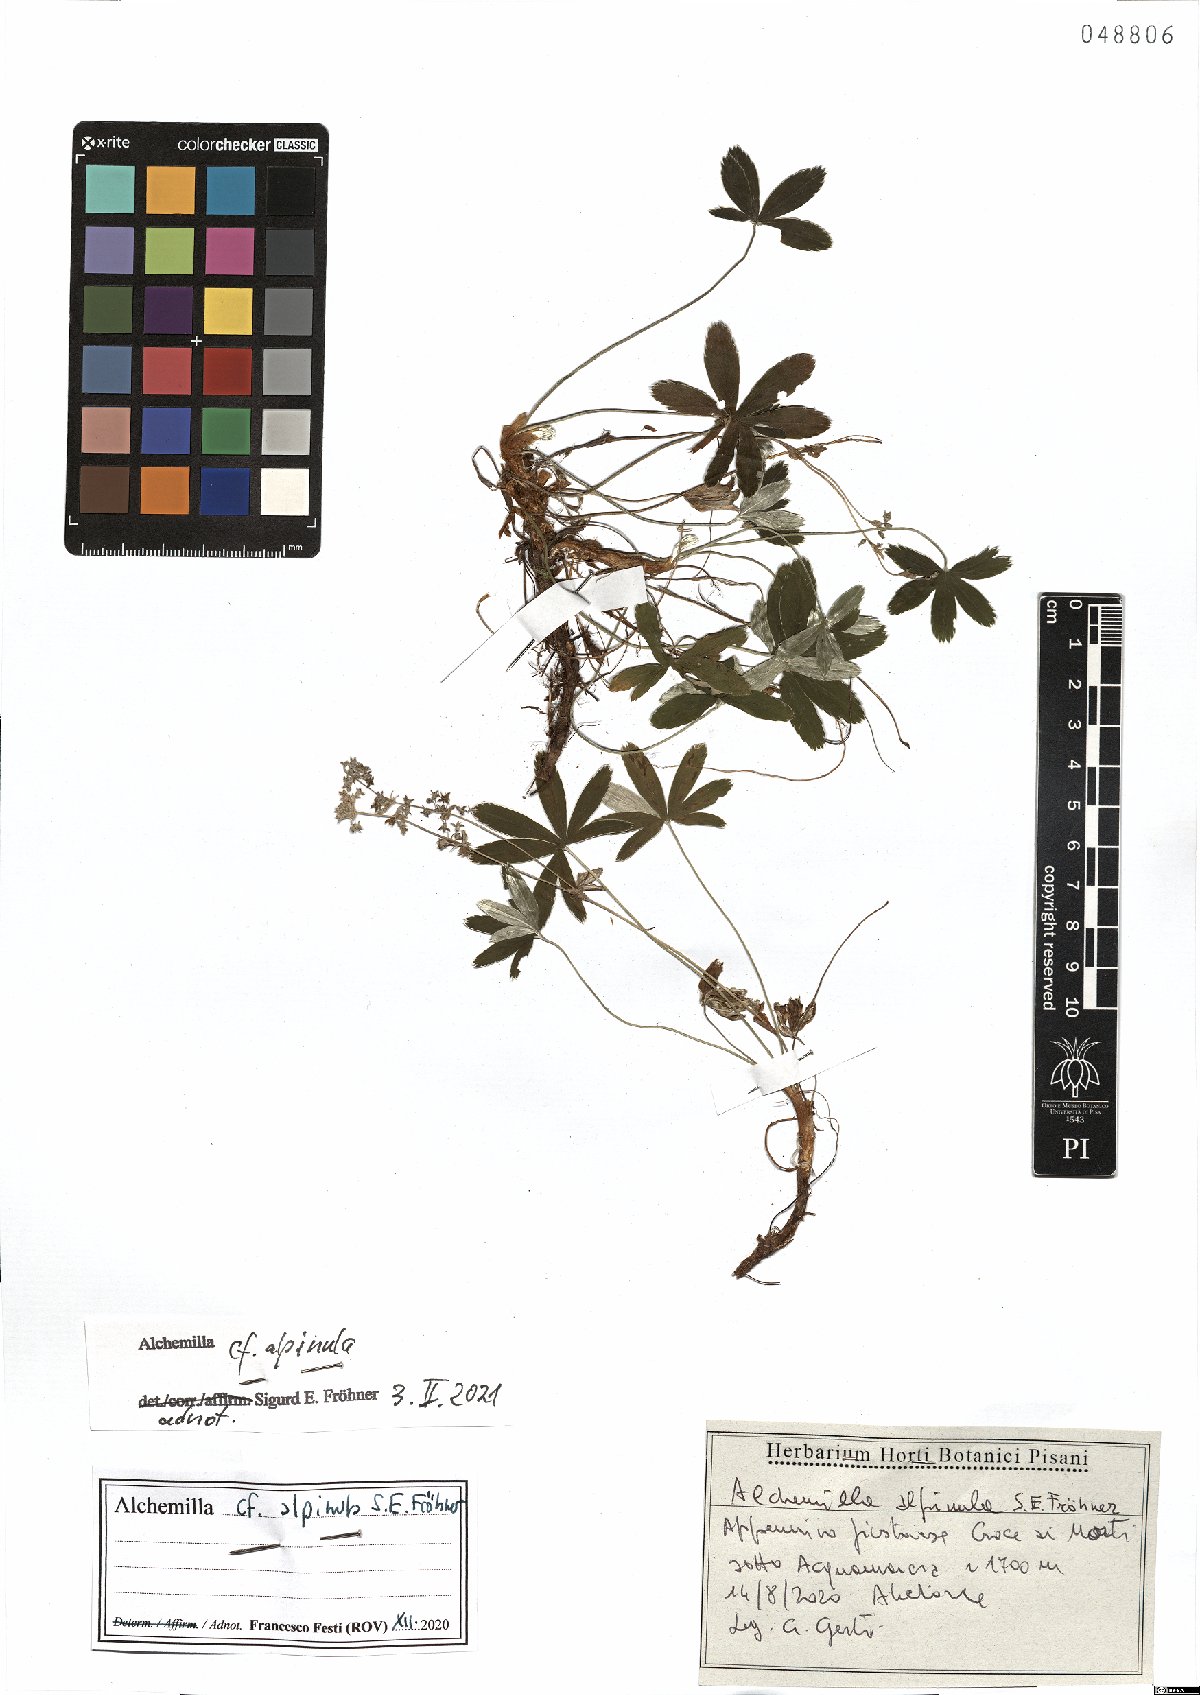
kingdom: Plantae
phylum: Tracheophyta
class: Magnoliopsida
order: Rosales
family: Rosaceae
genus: Alchemilla
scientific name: Alchemilla alpinula
